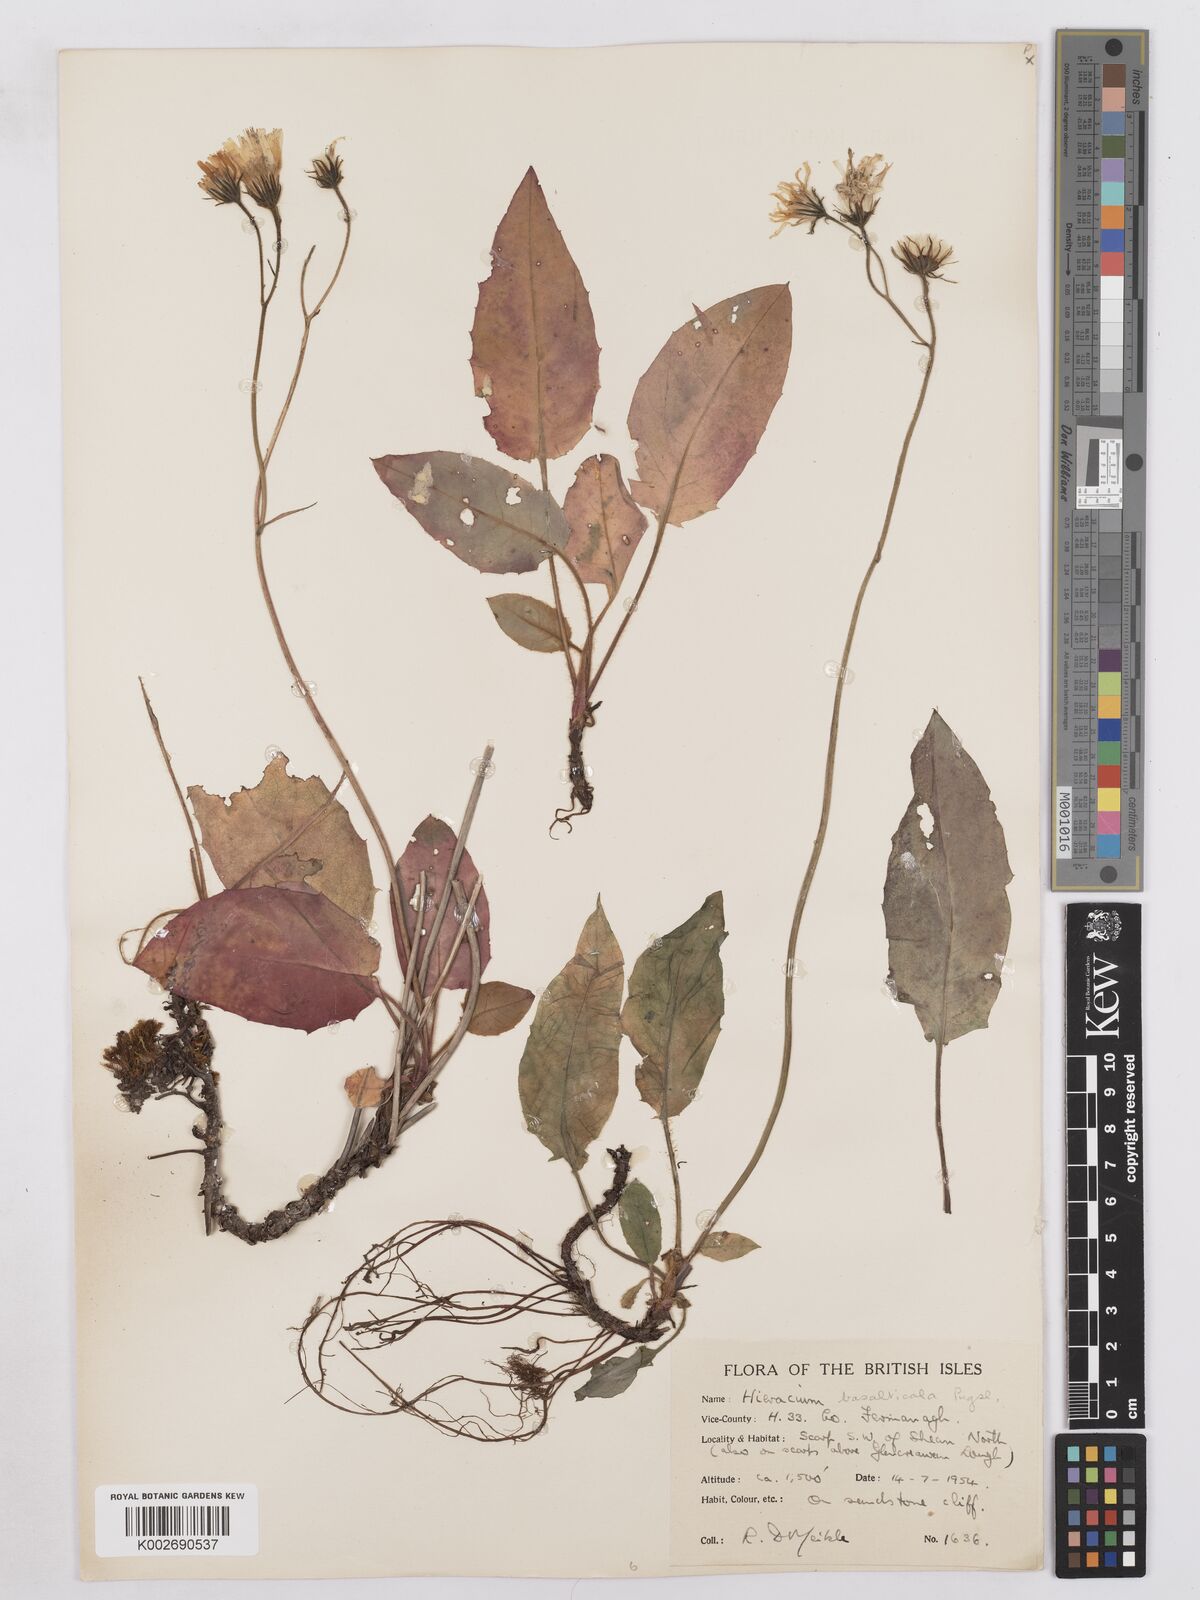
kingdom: Plantae
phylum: Tracheophyta
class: Magnoliopsida
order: Asterales
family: Asteraceae
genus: Hieracium
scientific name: Hieracium basalticola
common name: Basalt hawkweed
